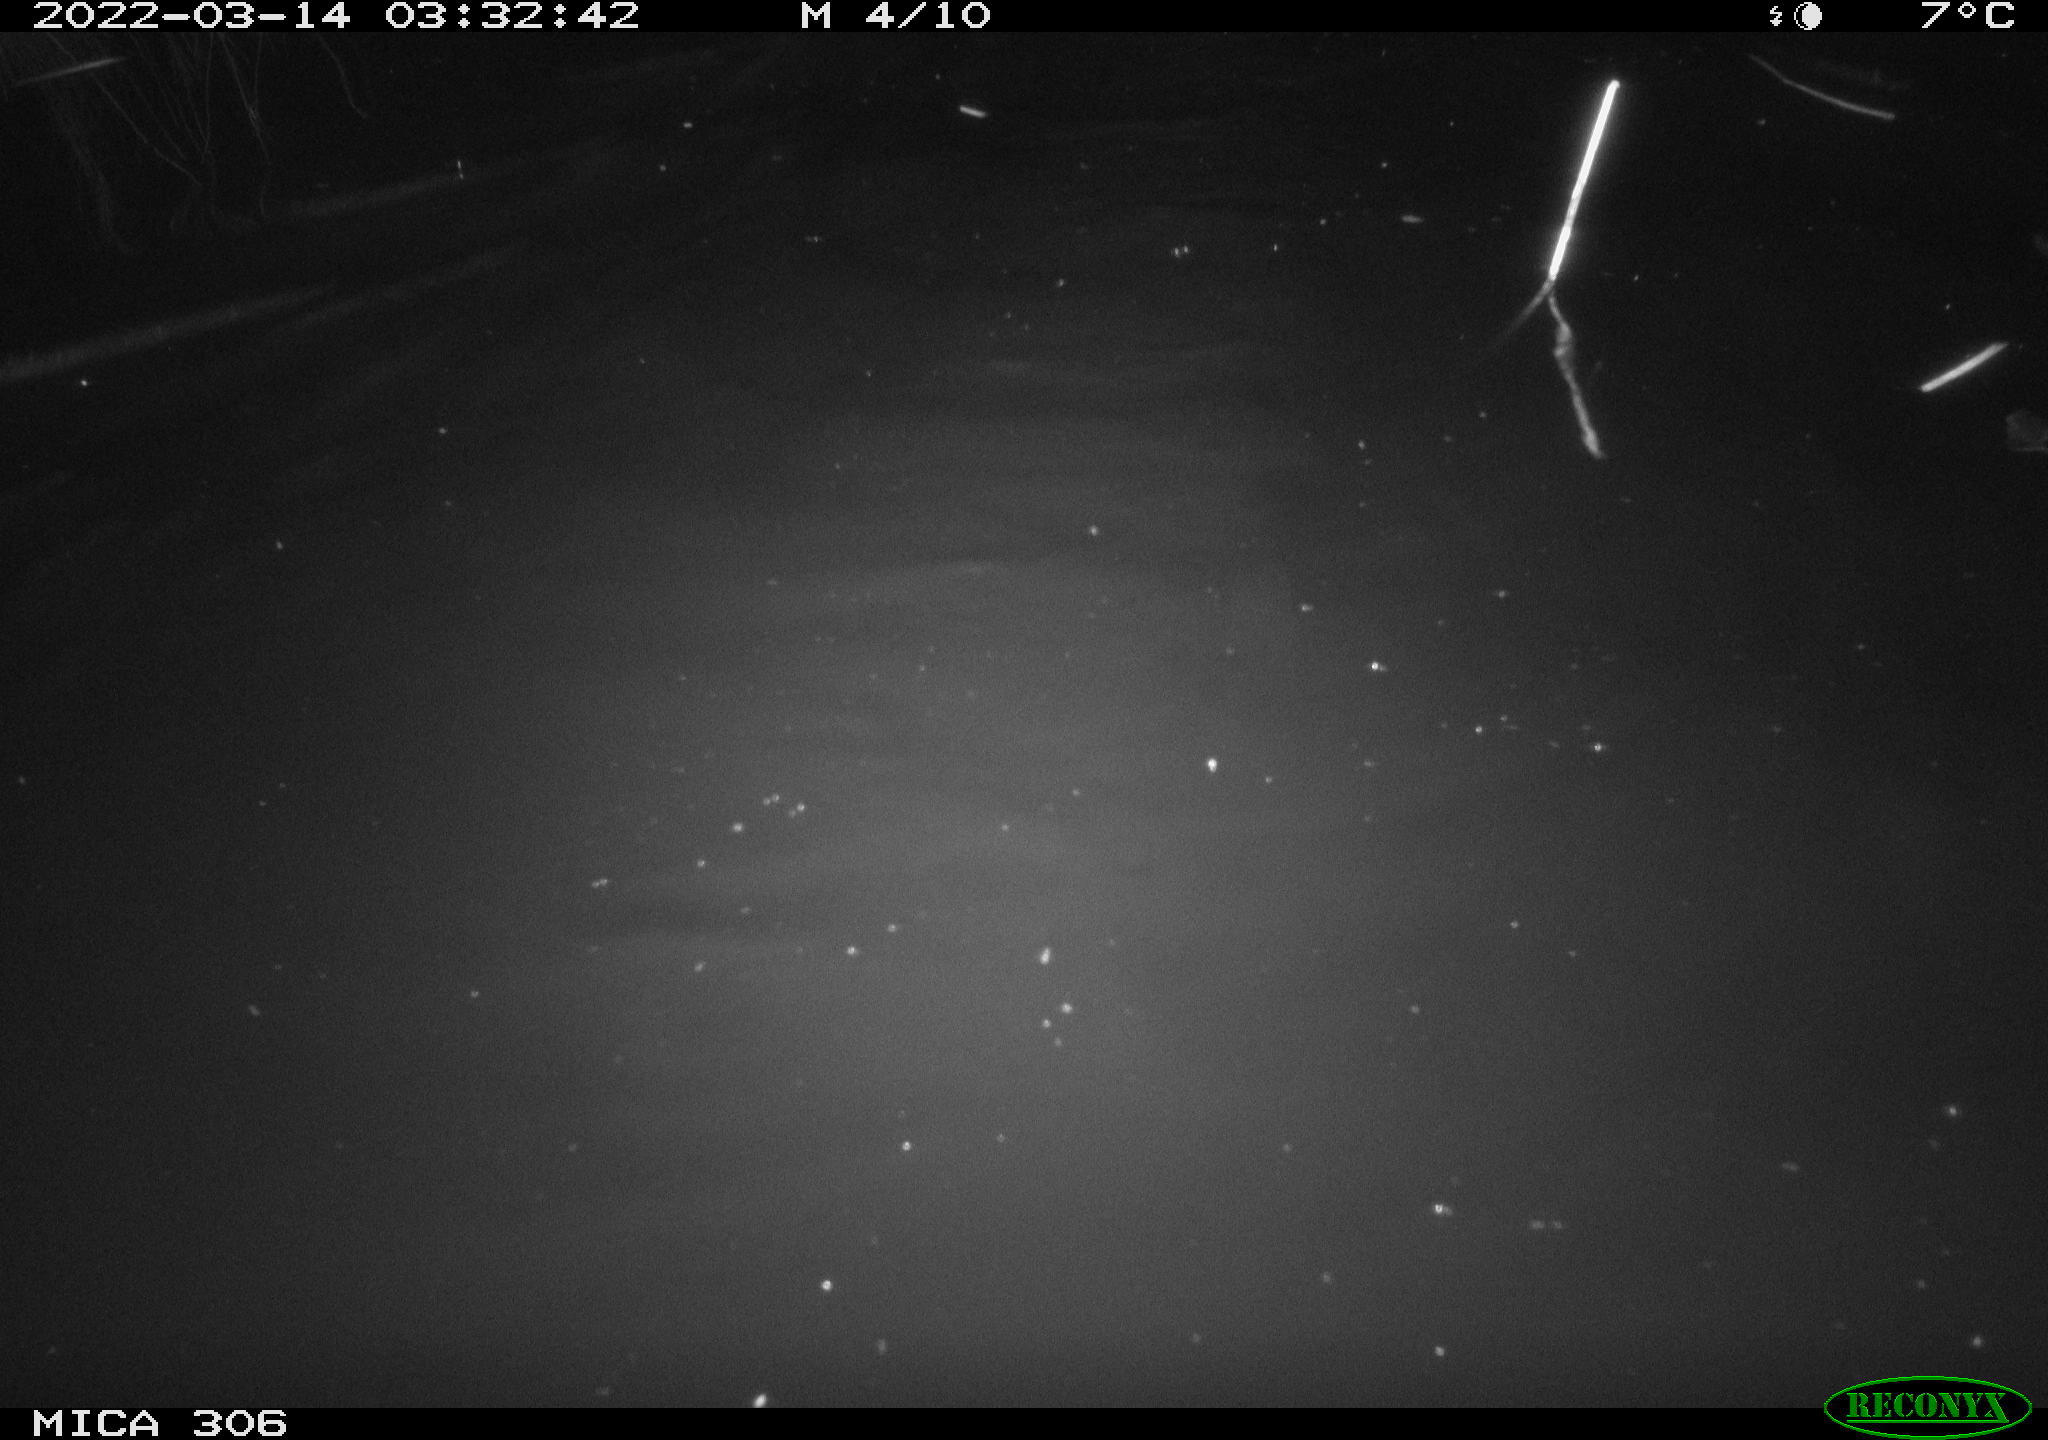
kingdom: Animalia
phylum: Chordata
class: Mammalia
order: Rodentia
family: Cricetidae
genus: Ondatra
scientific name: Ondatra zibethicus
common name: Muskrat
